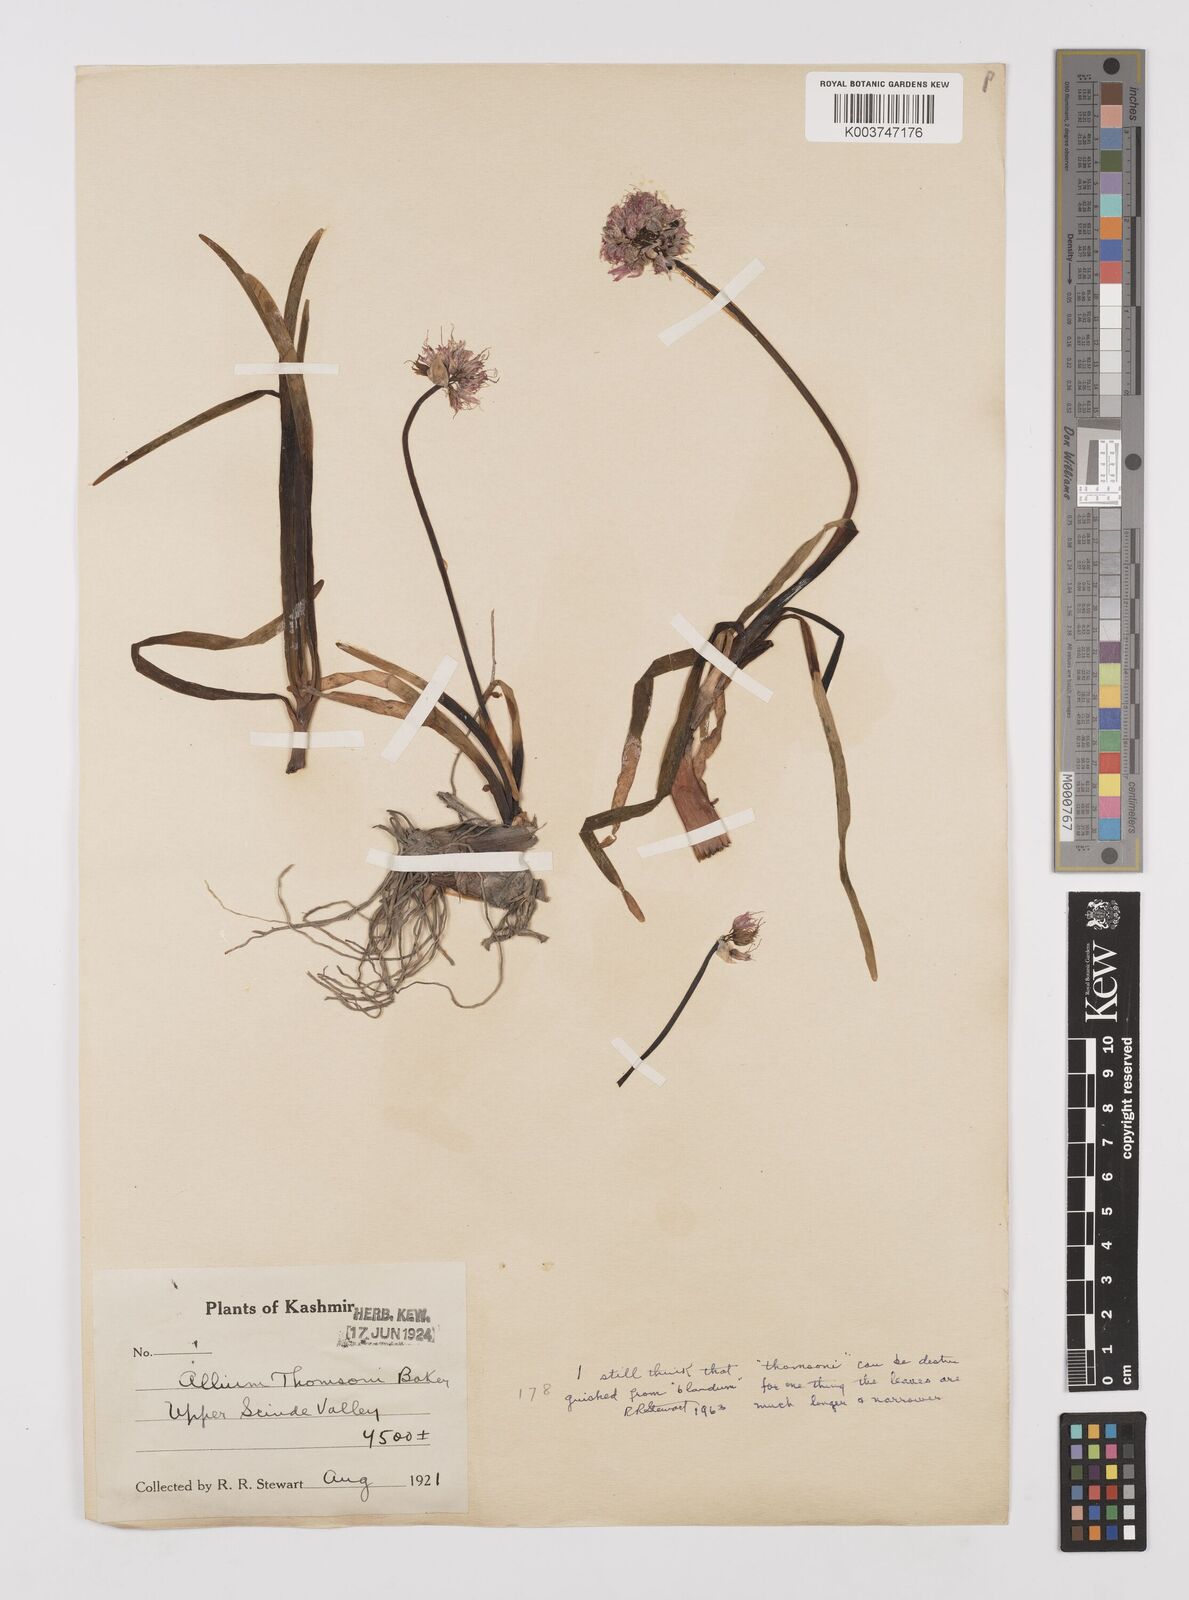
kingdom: Plantae
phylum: Tracheophyta
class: Liliopsida
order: Asparagales
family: Amaryllidaceae
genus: Allium
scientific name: Allium carolinianum
